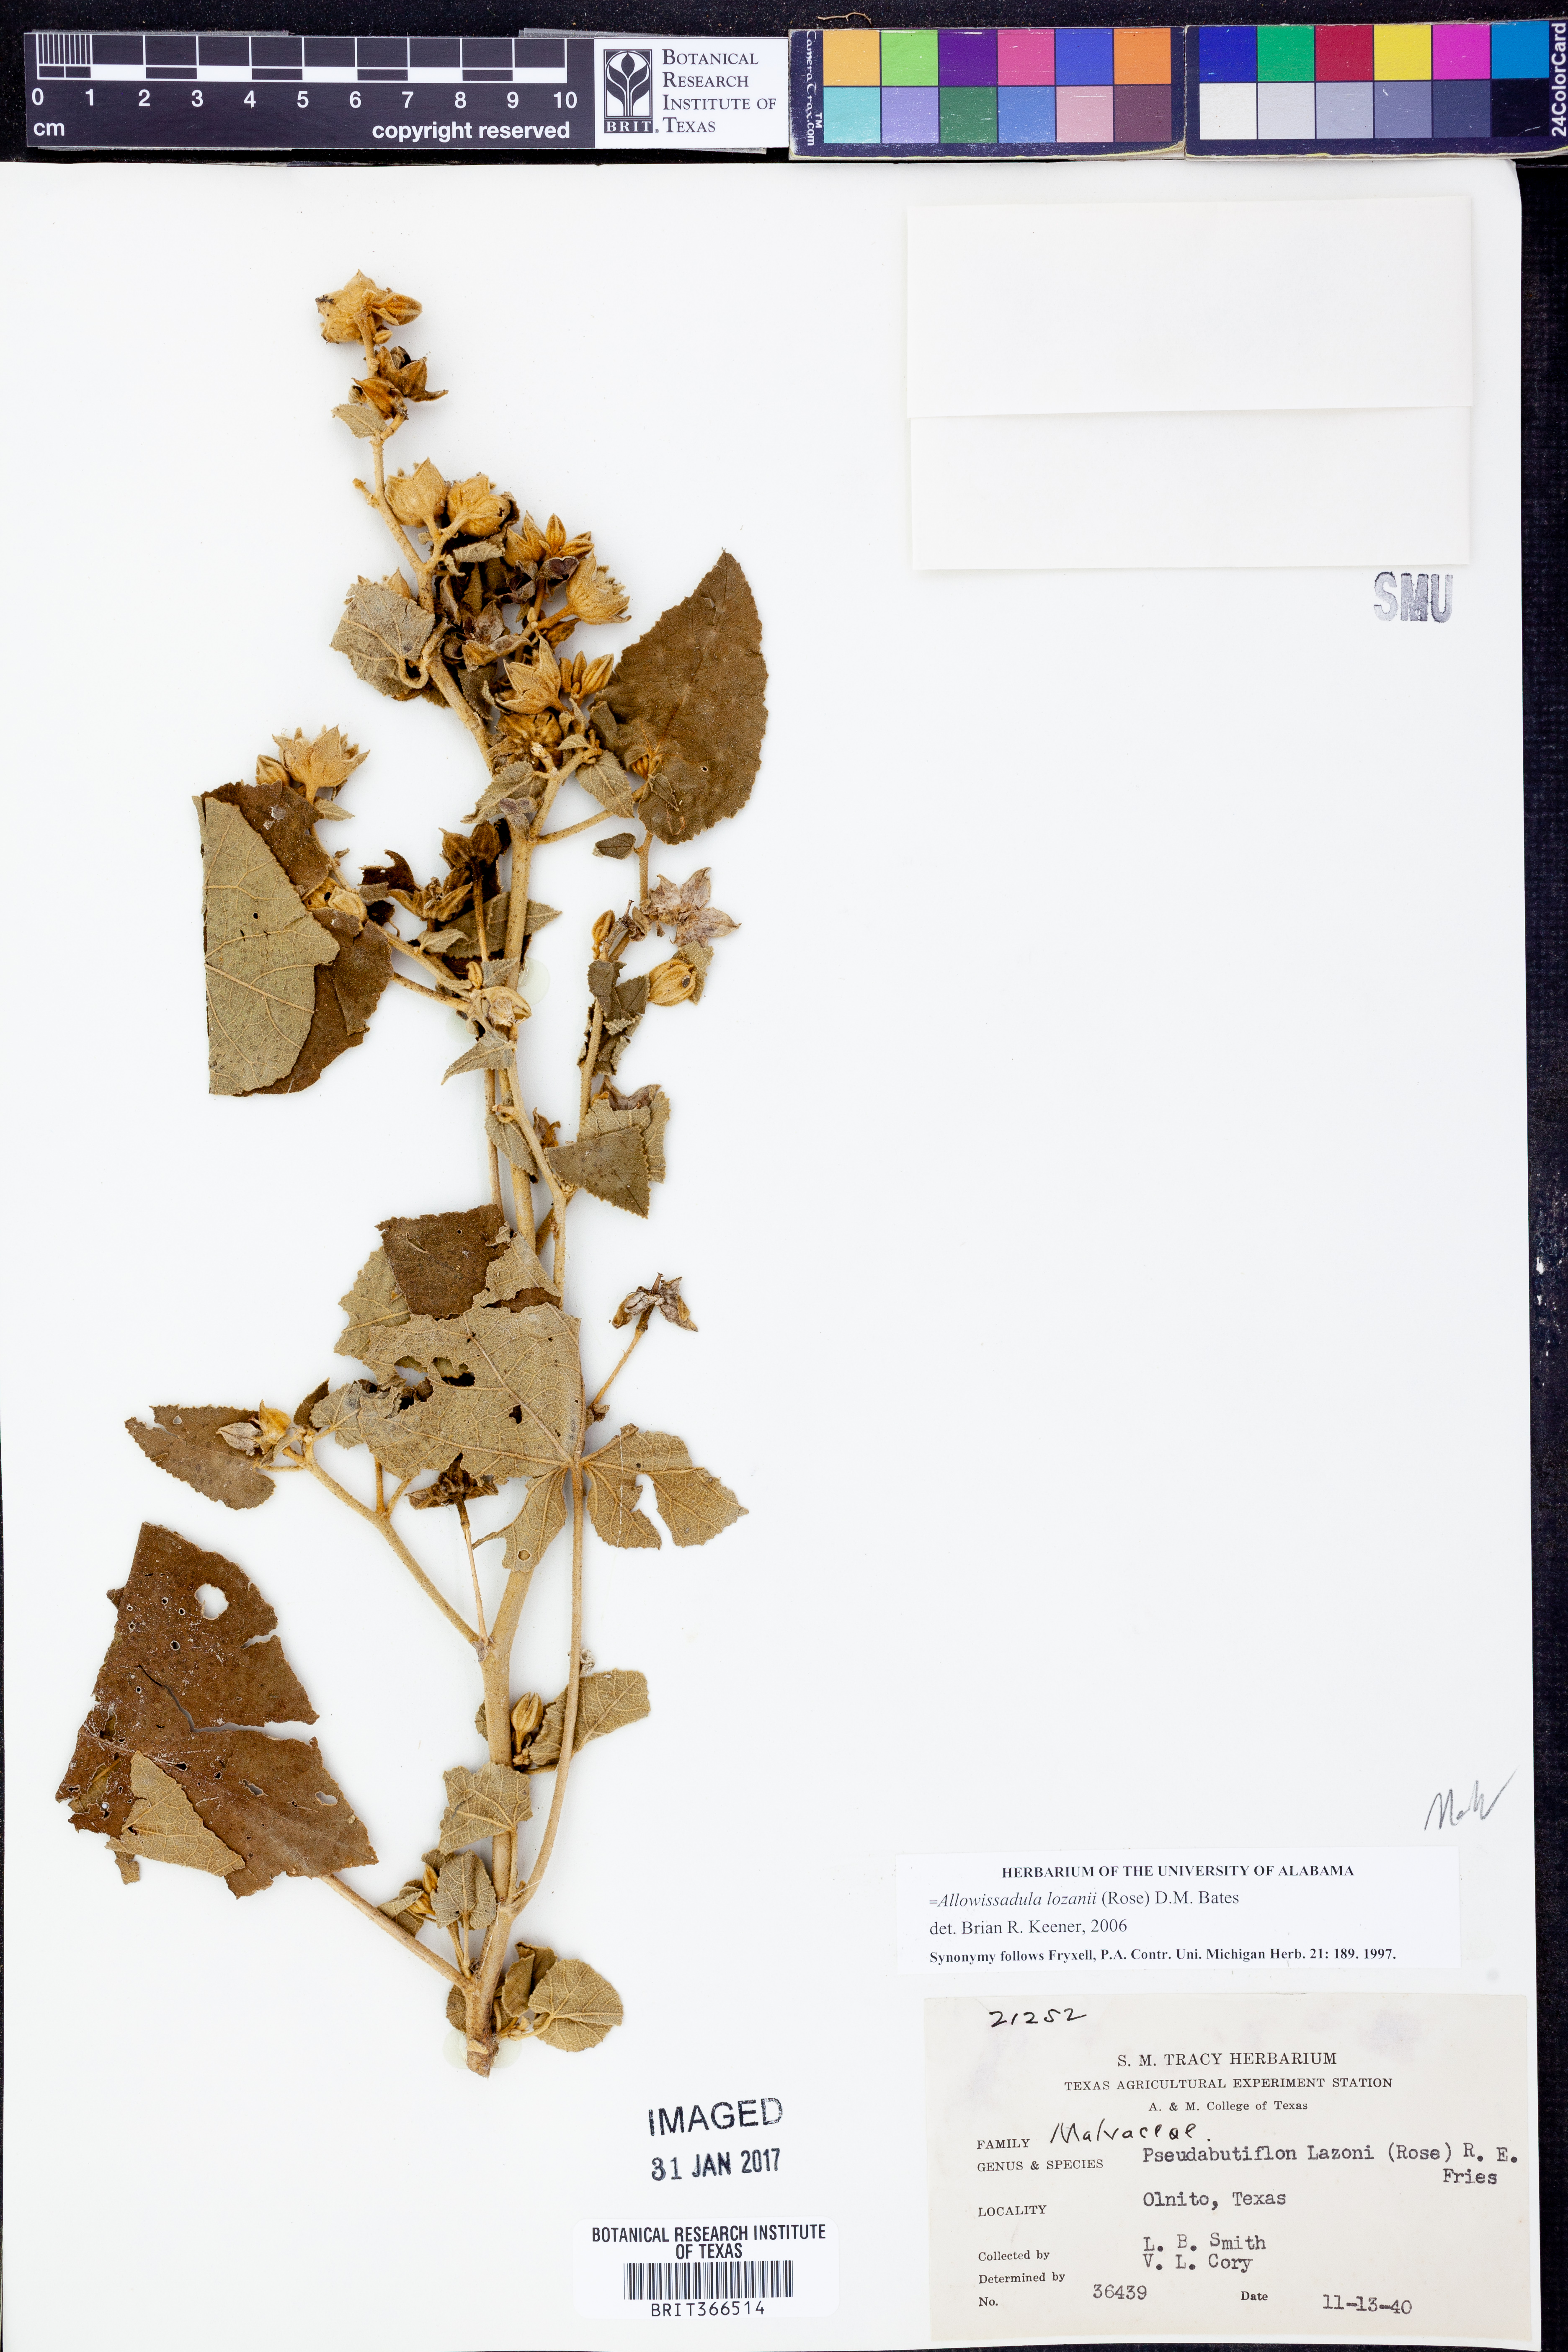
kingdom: Plantae
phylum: Tracheophyta
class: Magnoliopsida
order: Malvales
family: Malvaceae
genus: Allowissadula
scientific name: Allowissadula lozanii
